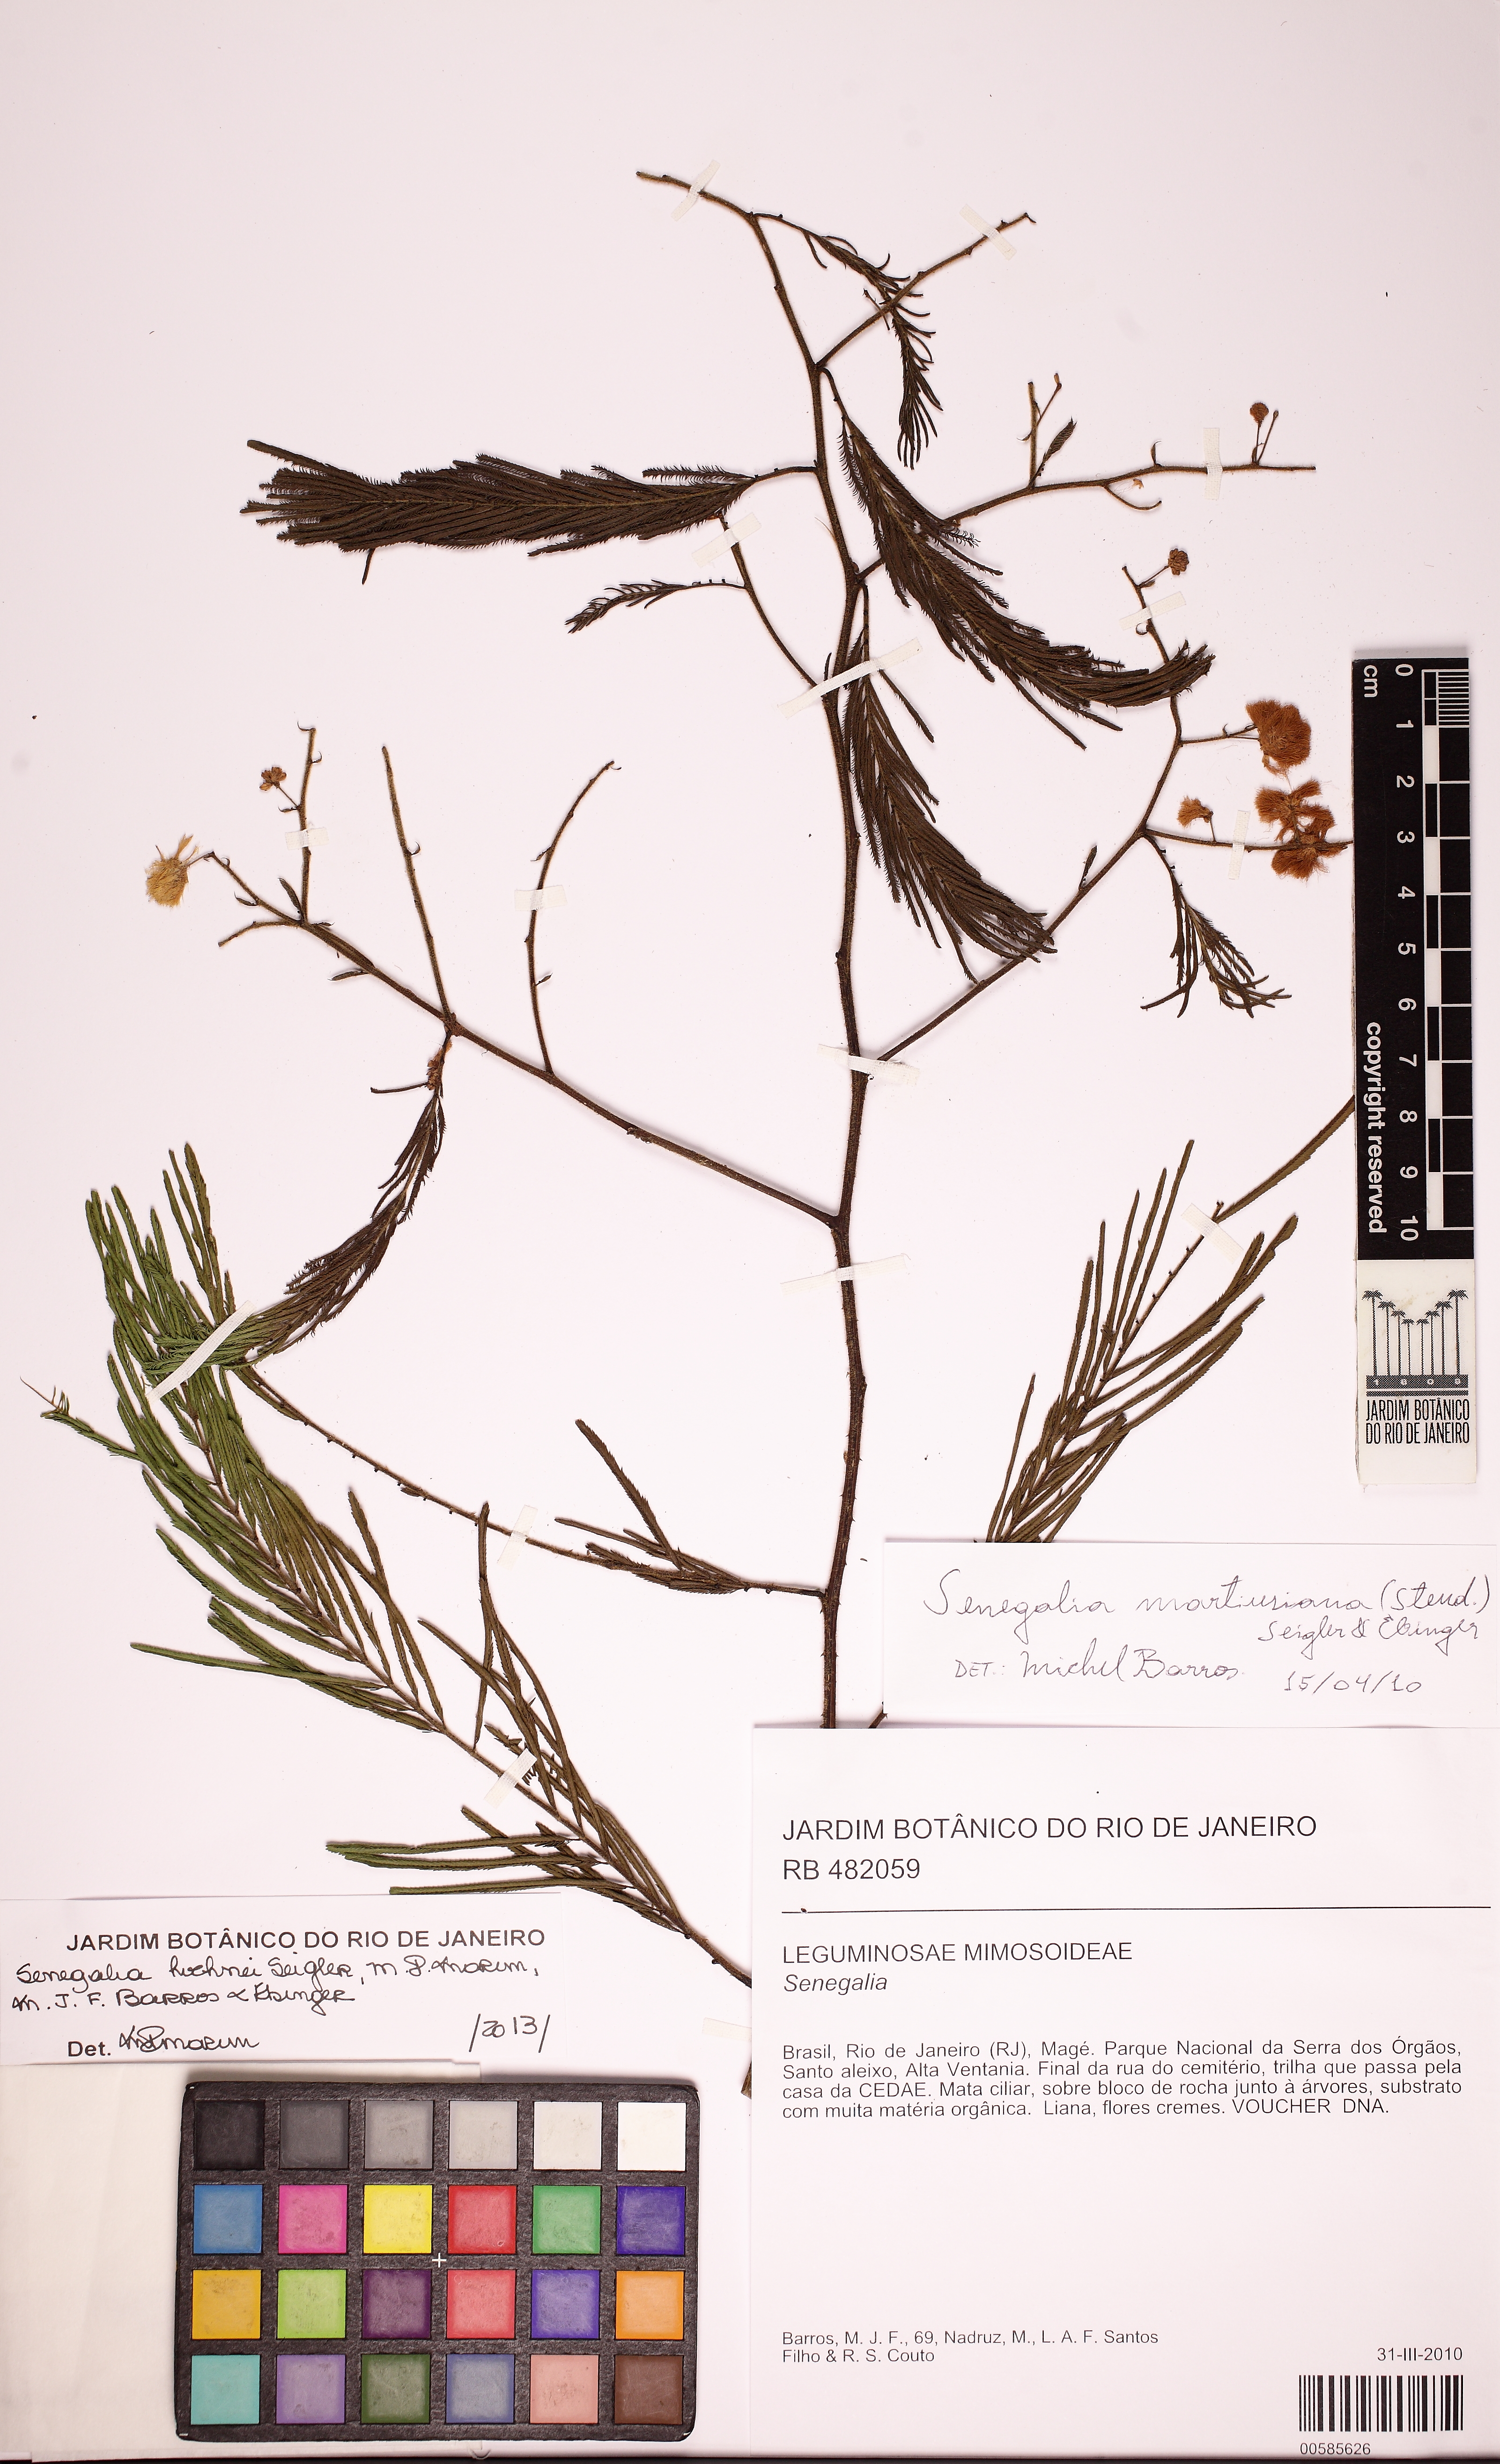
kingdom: Plantae
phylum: Tracheophyta
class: Magnoliopsida
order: Fabales
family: Fabaceae
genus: Senegalia
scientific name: Senegalia hoehnei
